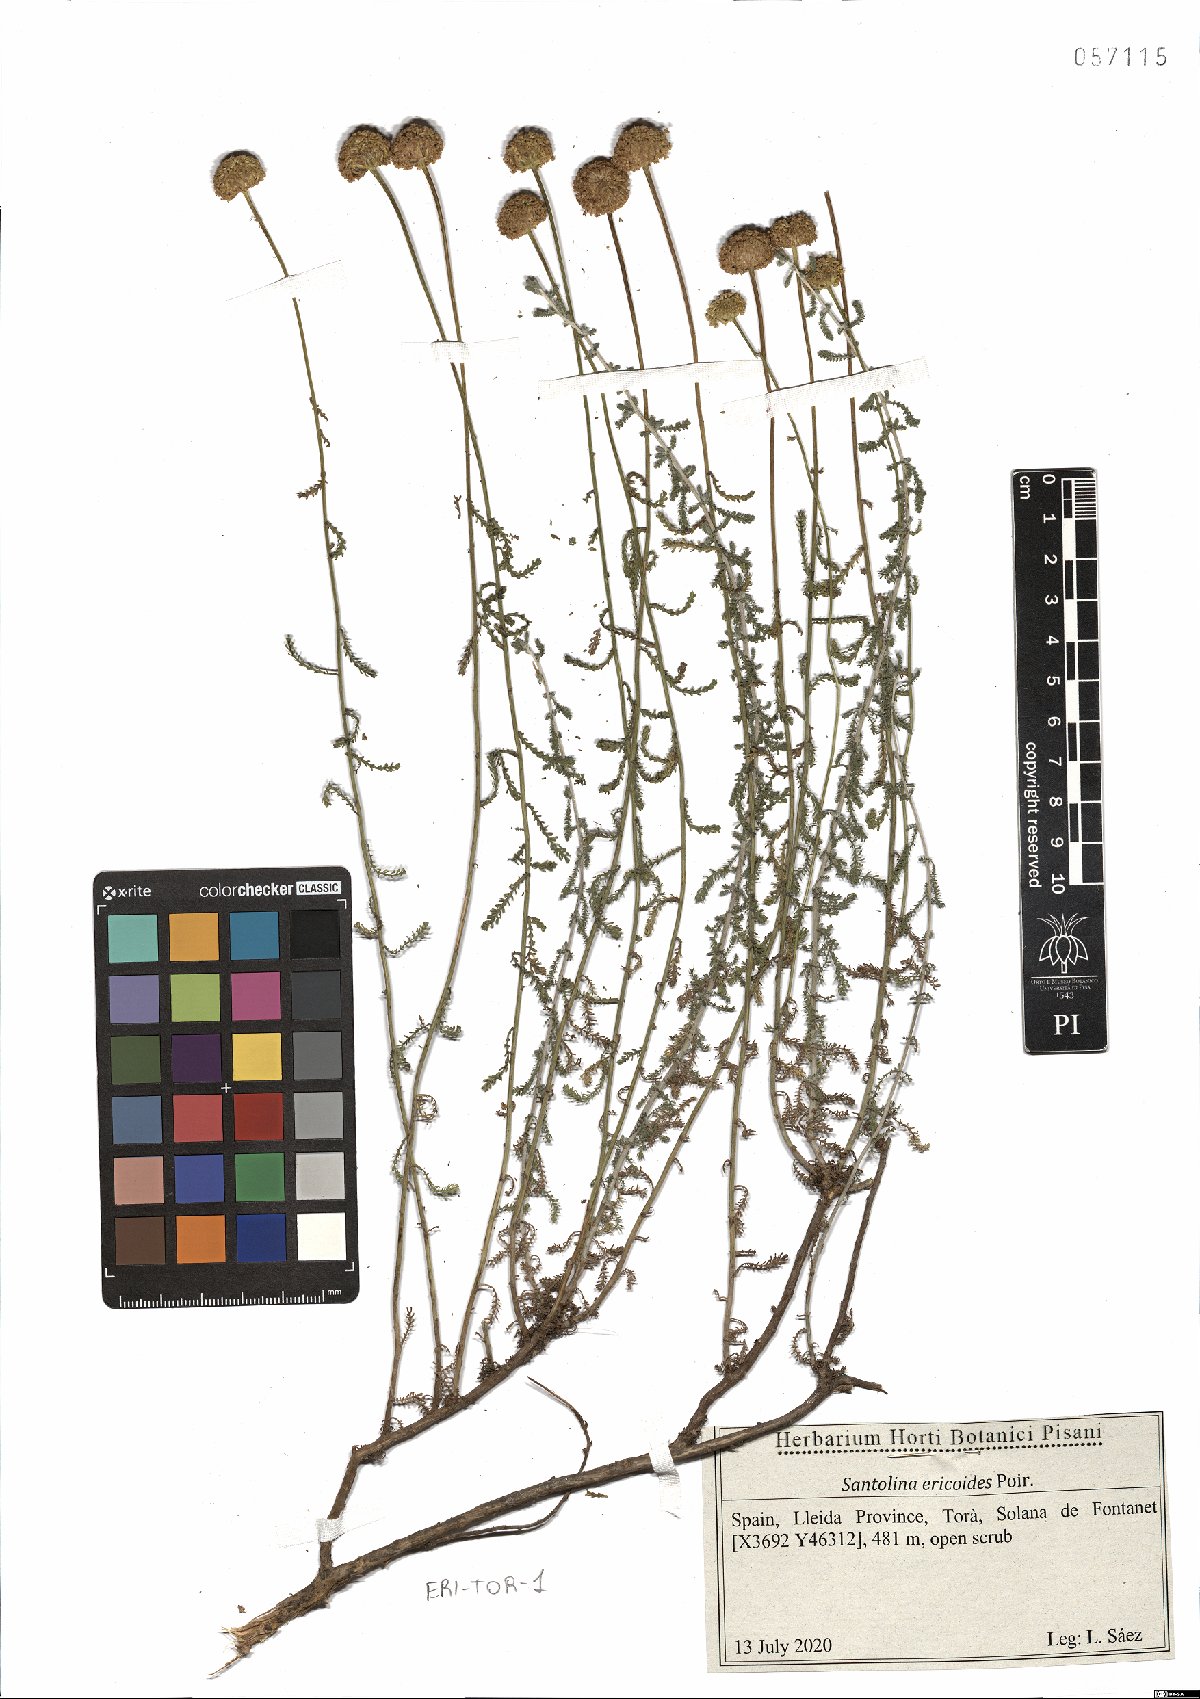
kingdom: Plantae
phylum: Tracheophyta
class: Magnoliopsida
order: Asterales
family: Asteraceae
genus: Santolina
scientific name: Santolina ericoides
